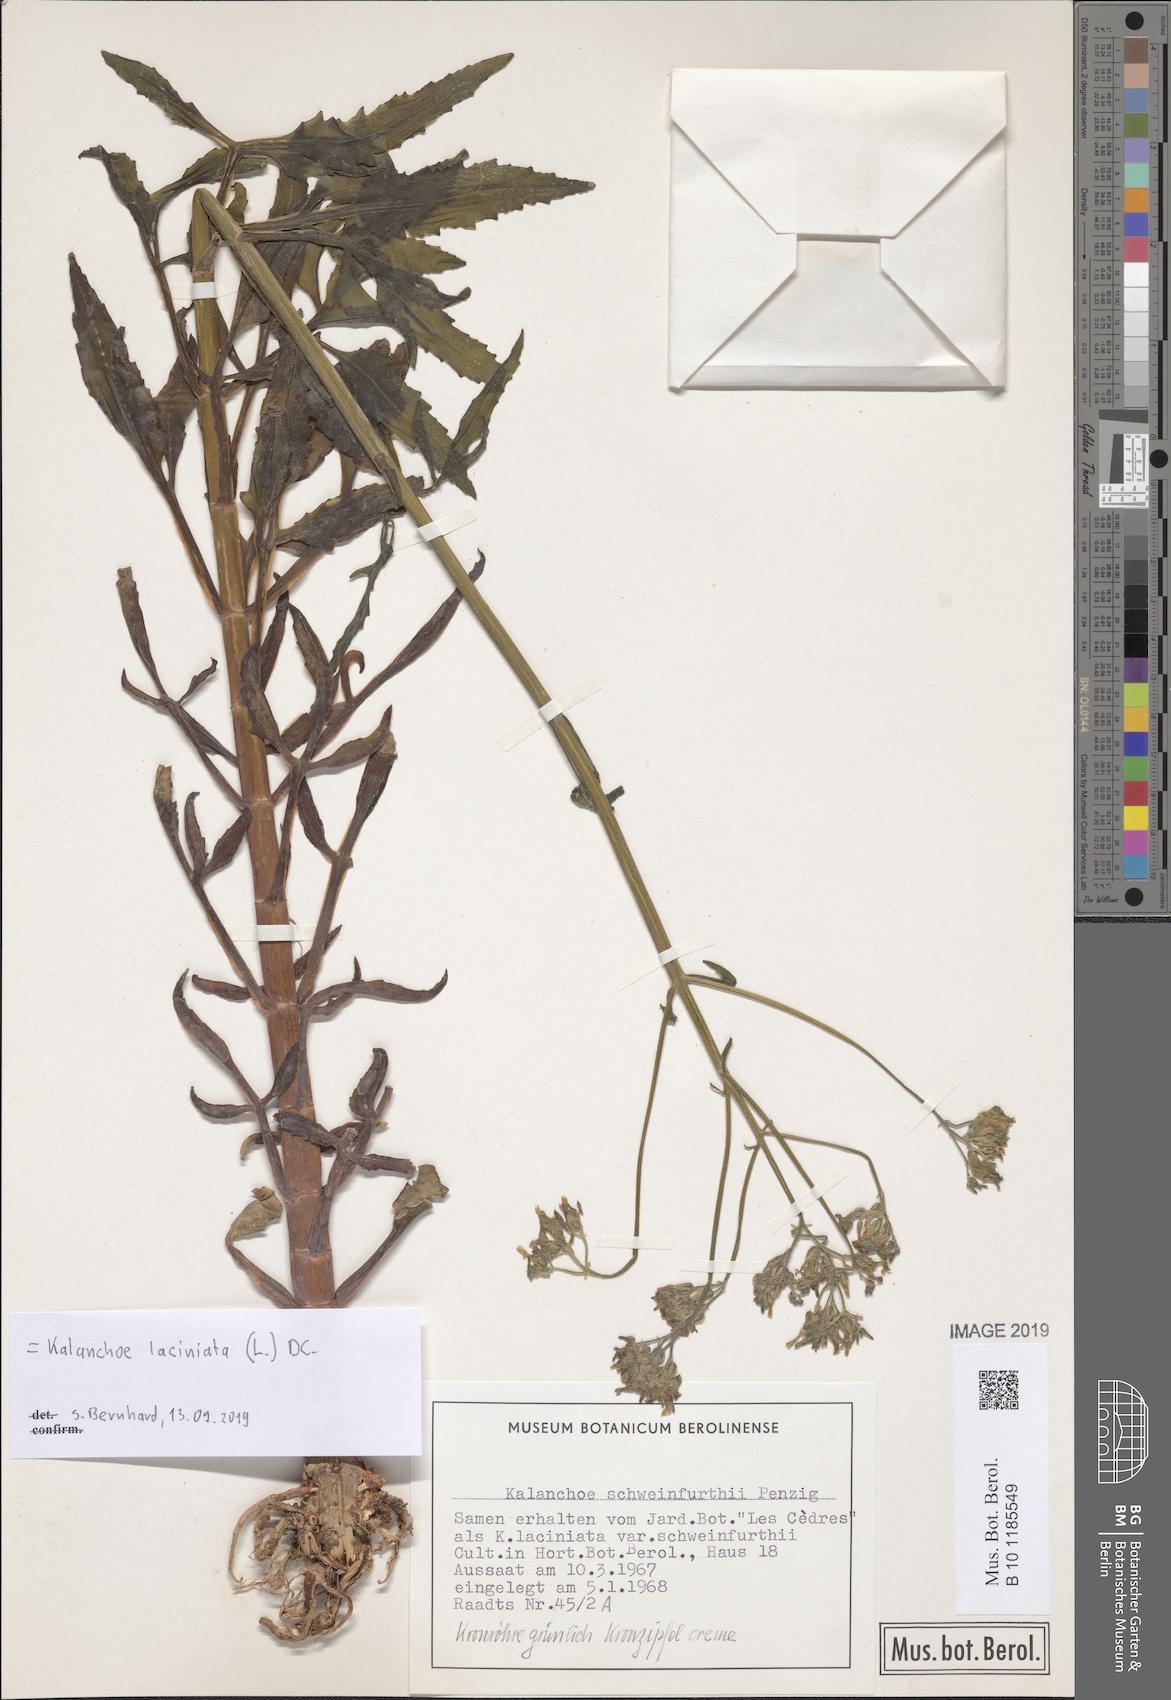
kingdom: Plantae
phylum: Tracheophyta
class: Magnoliopsida
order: Saxifragales
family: Crassulaceae
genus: Kalanchoe
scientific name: Kalanchoe laciniata
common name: Christmastree plant
